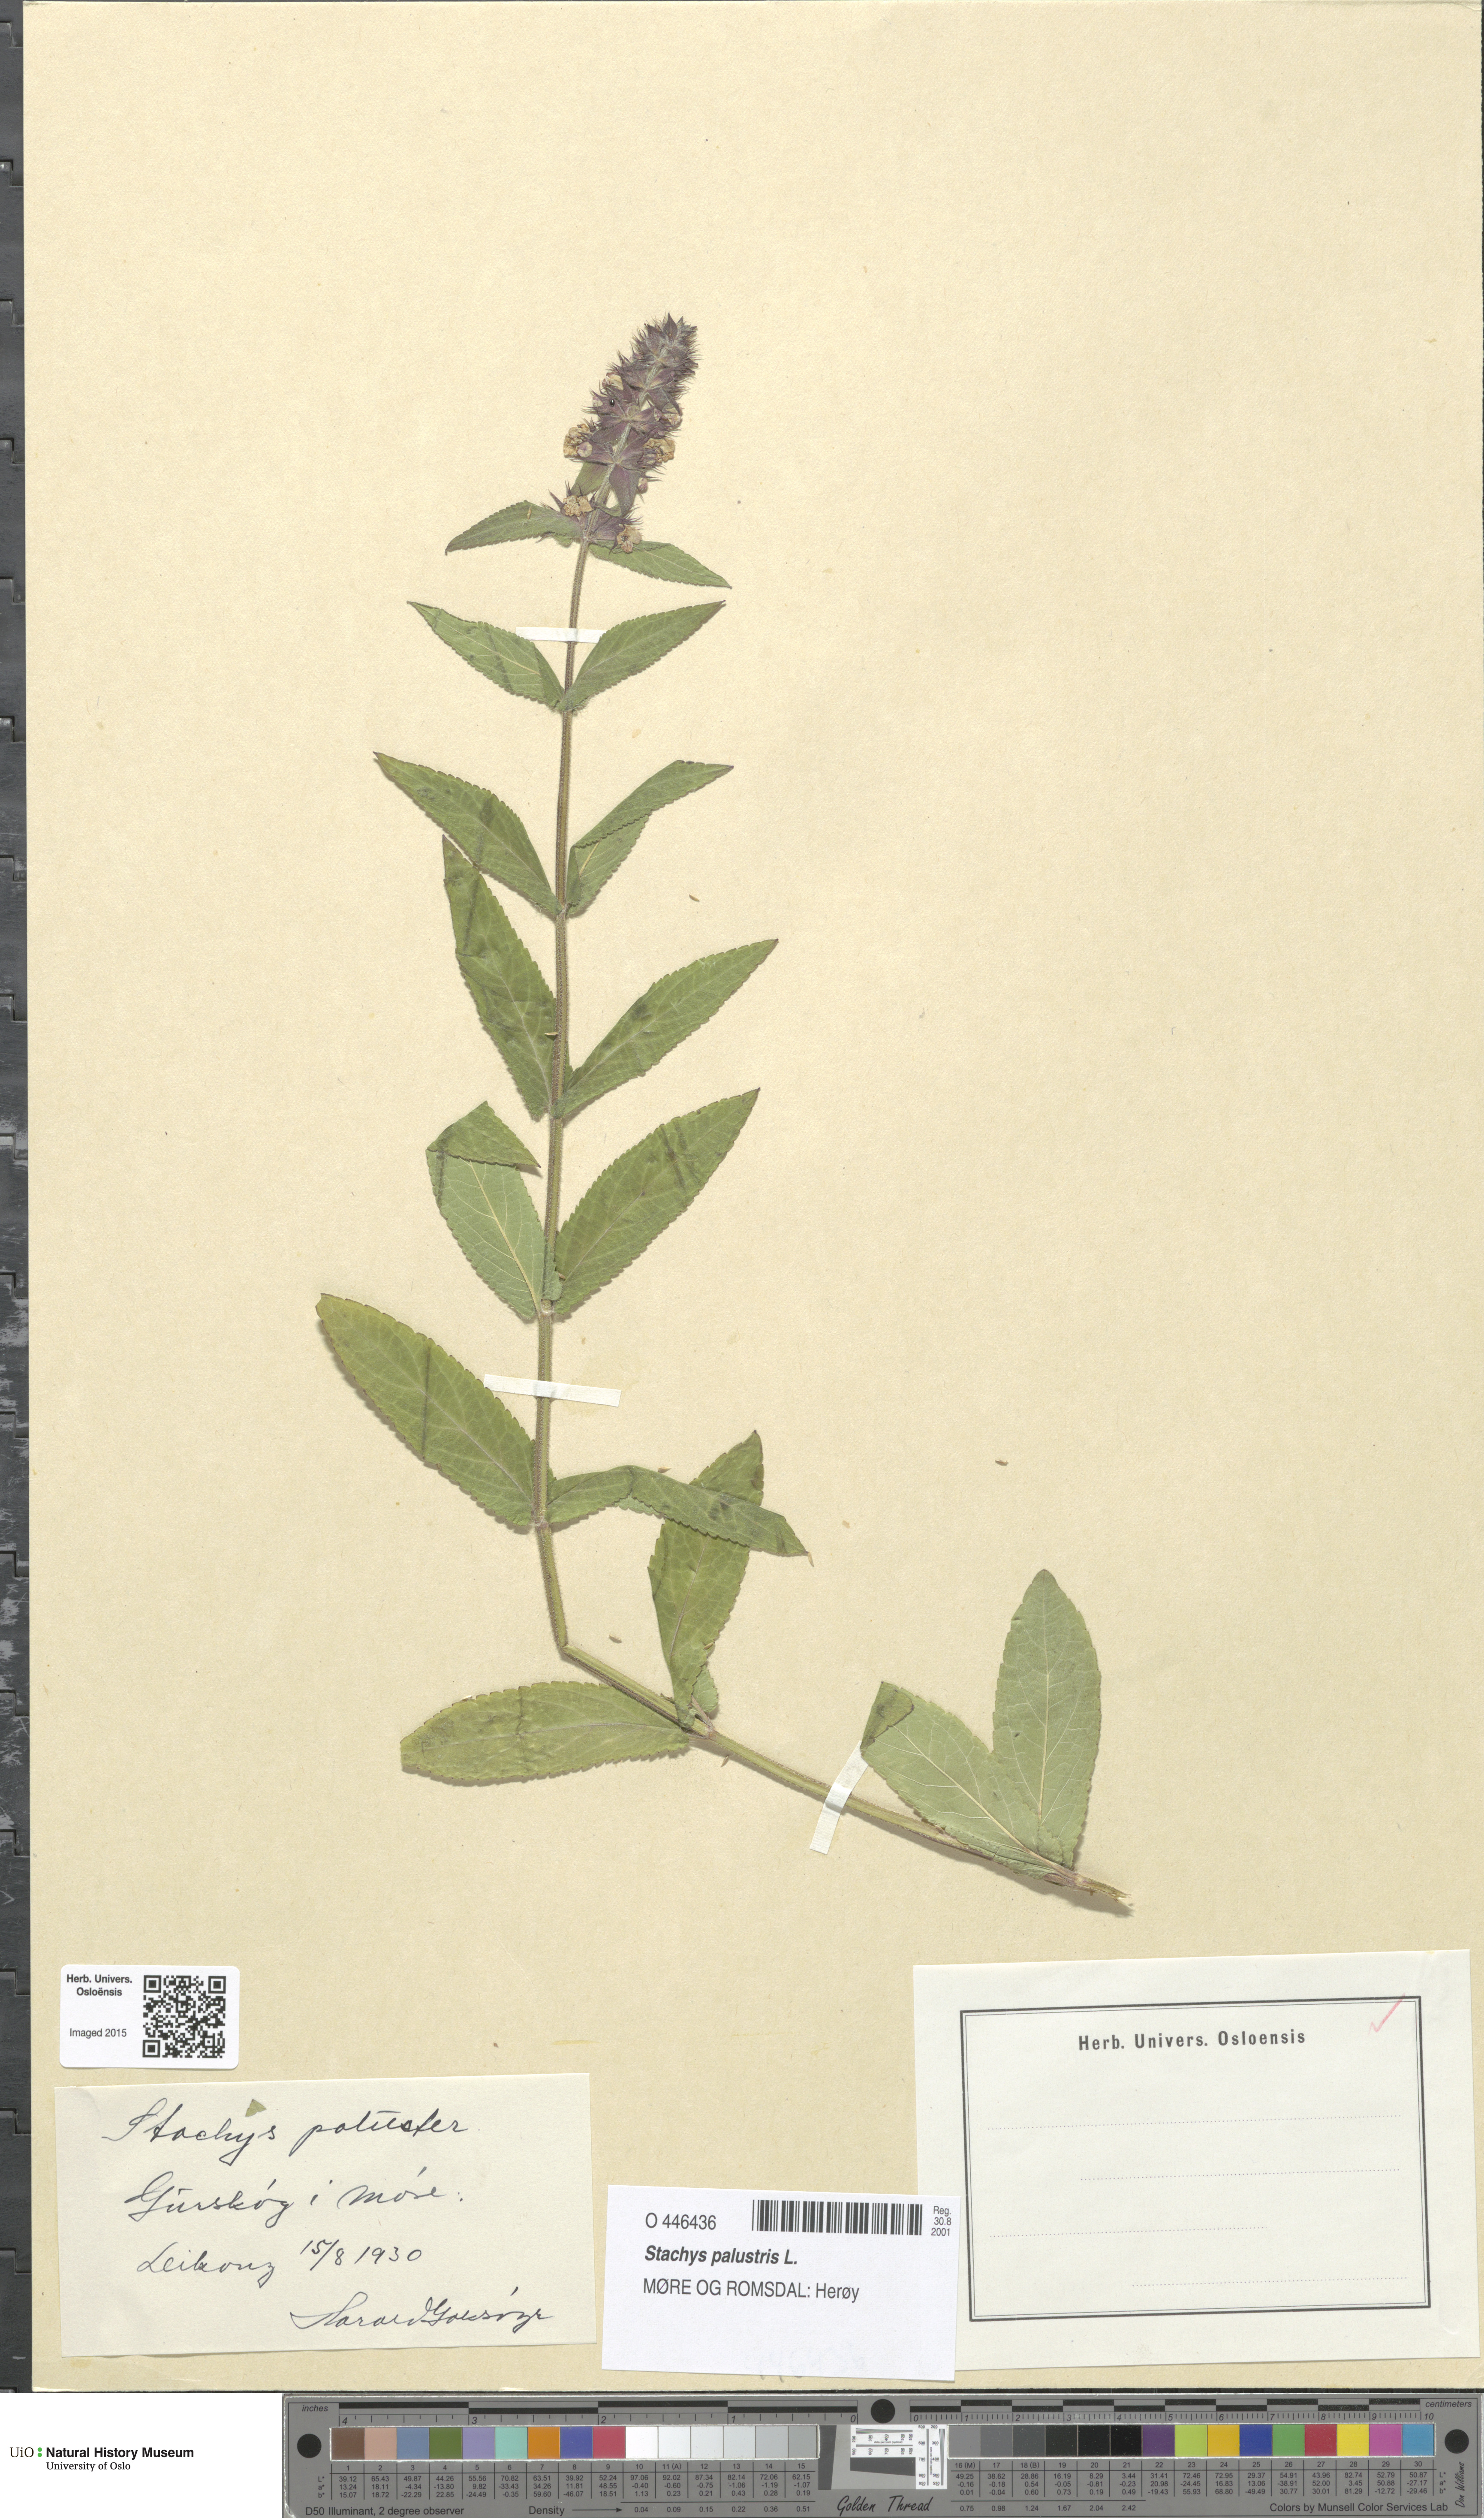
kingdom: Plantae
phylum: Tracheophyta
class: Magnoliopsida
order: Lamiales
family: Lamiaceae
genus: Stachys
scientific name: Stachys palustris
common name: Marsh woundwort
